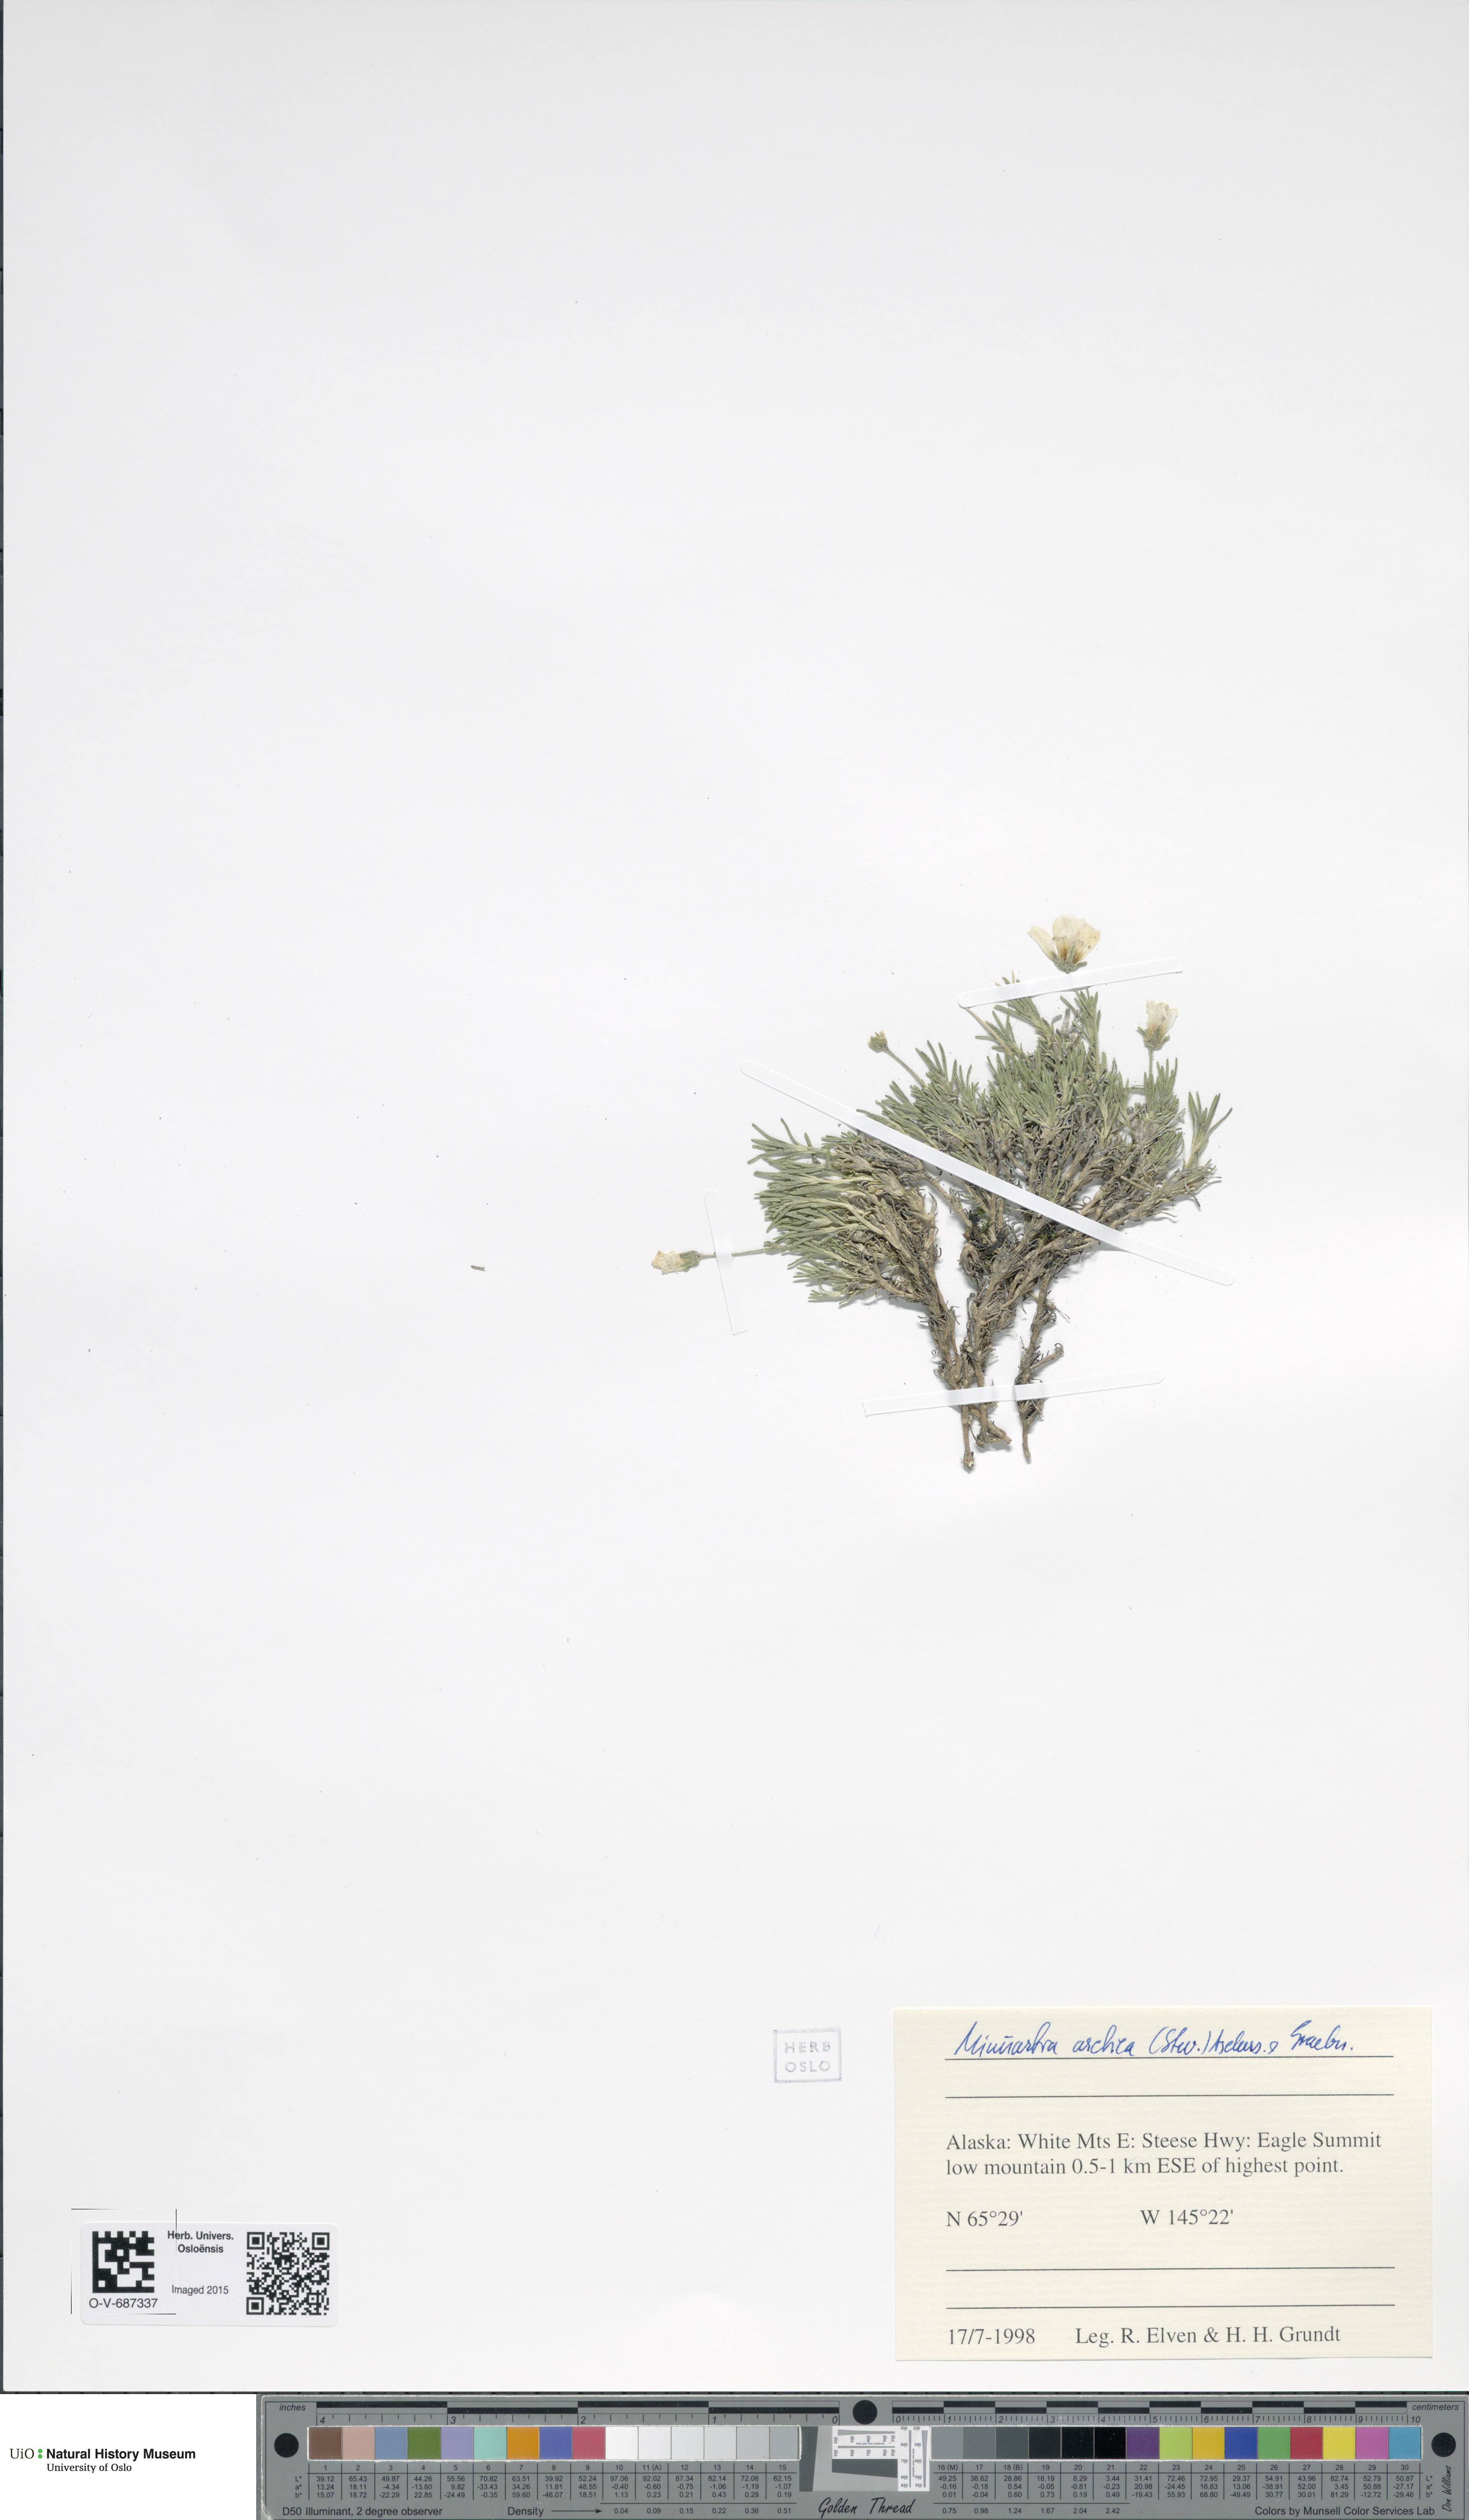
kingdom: Plantae
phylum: Tracheophyta
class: Magnoliopsida
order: Caryophyllales
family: Caryophyllaceae
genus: Cherleria
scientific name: Cherleria arctica
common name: Arctic sandwort
